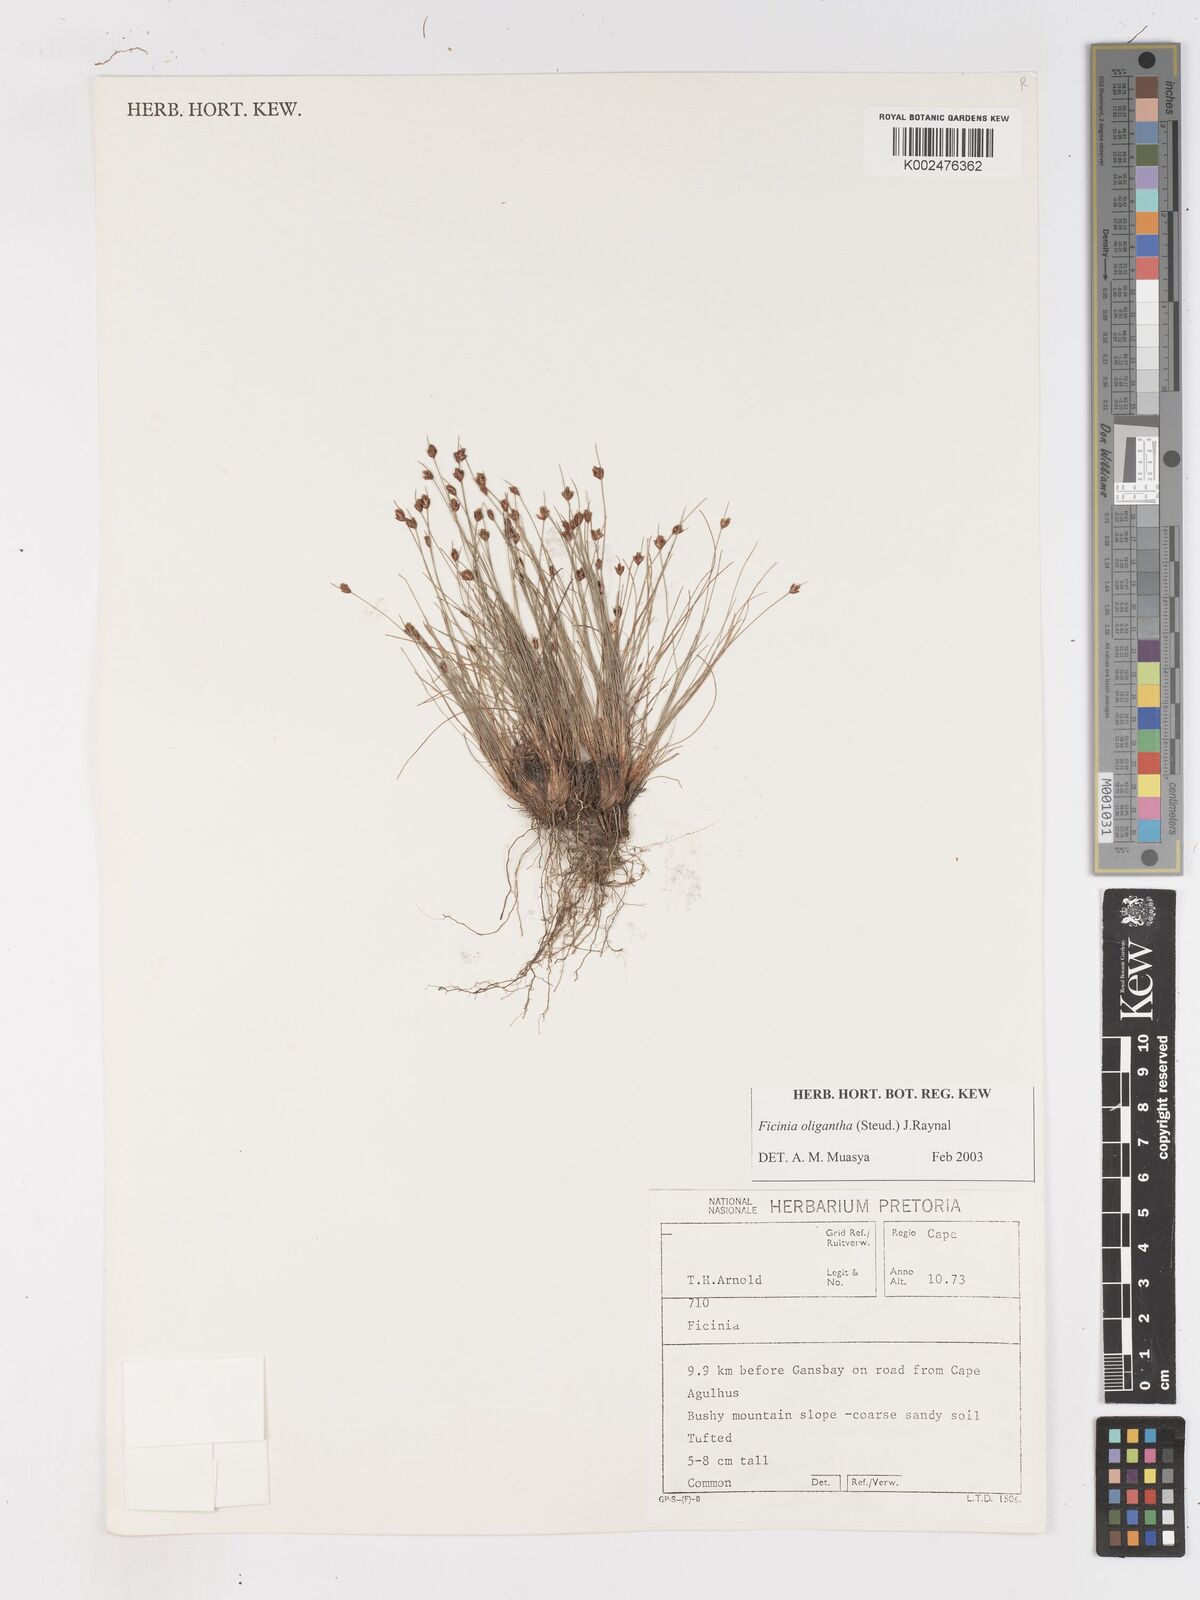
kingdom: Plantae
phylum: Tracheophyta
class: Liliopsida
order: Poales
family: Cyperaceae
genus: Ficinia
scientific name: Ficinia oligantha
